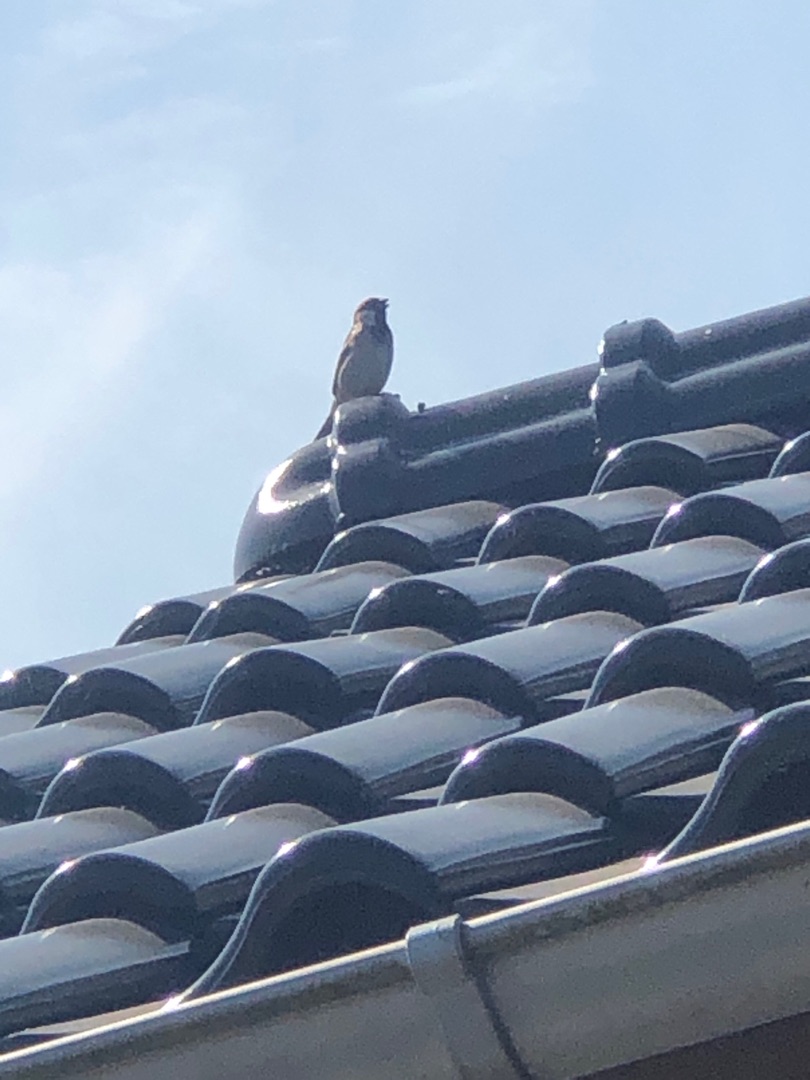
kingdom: Animalia
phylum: Chordata
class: Aves
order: Passeriformes
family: Passeridae
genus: Passer
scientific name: Passer domesticus
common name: Gråspurv
